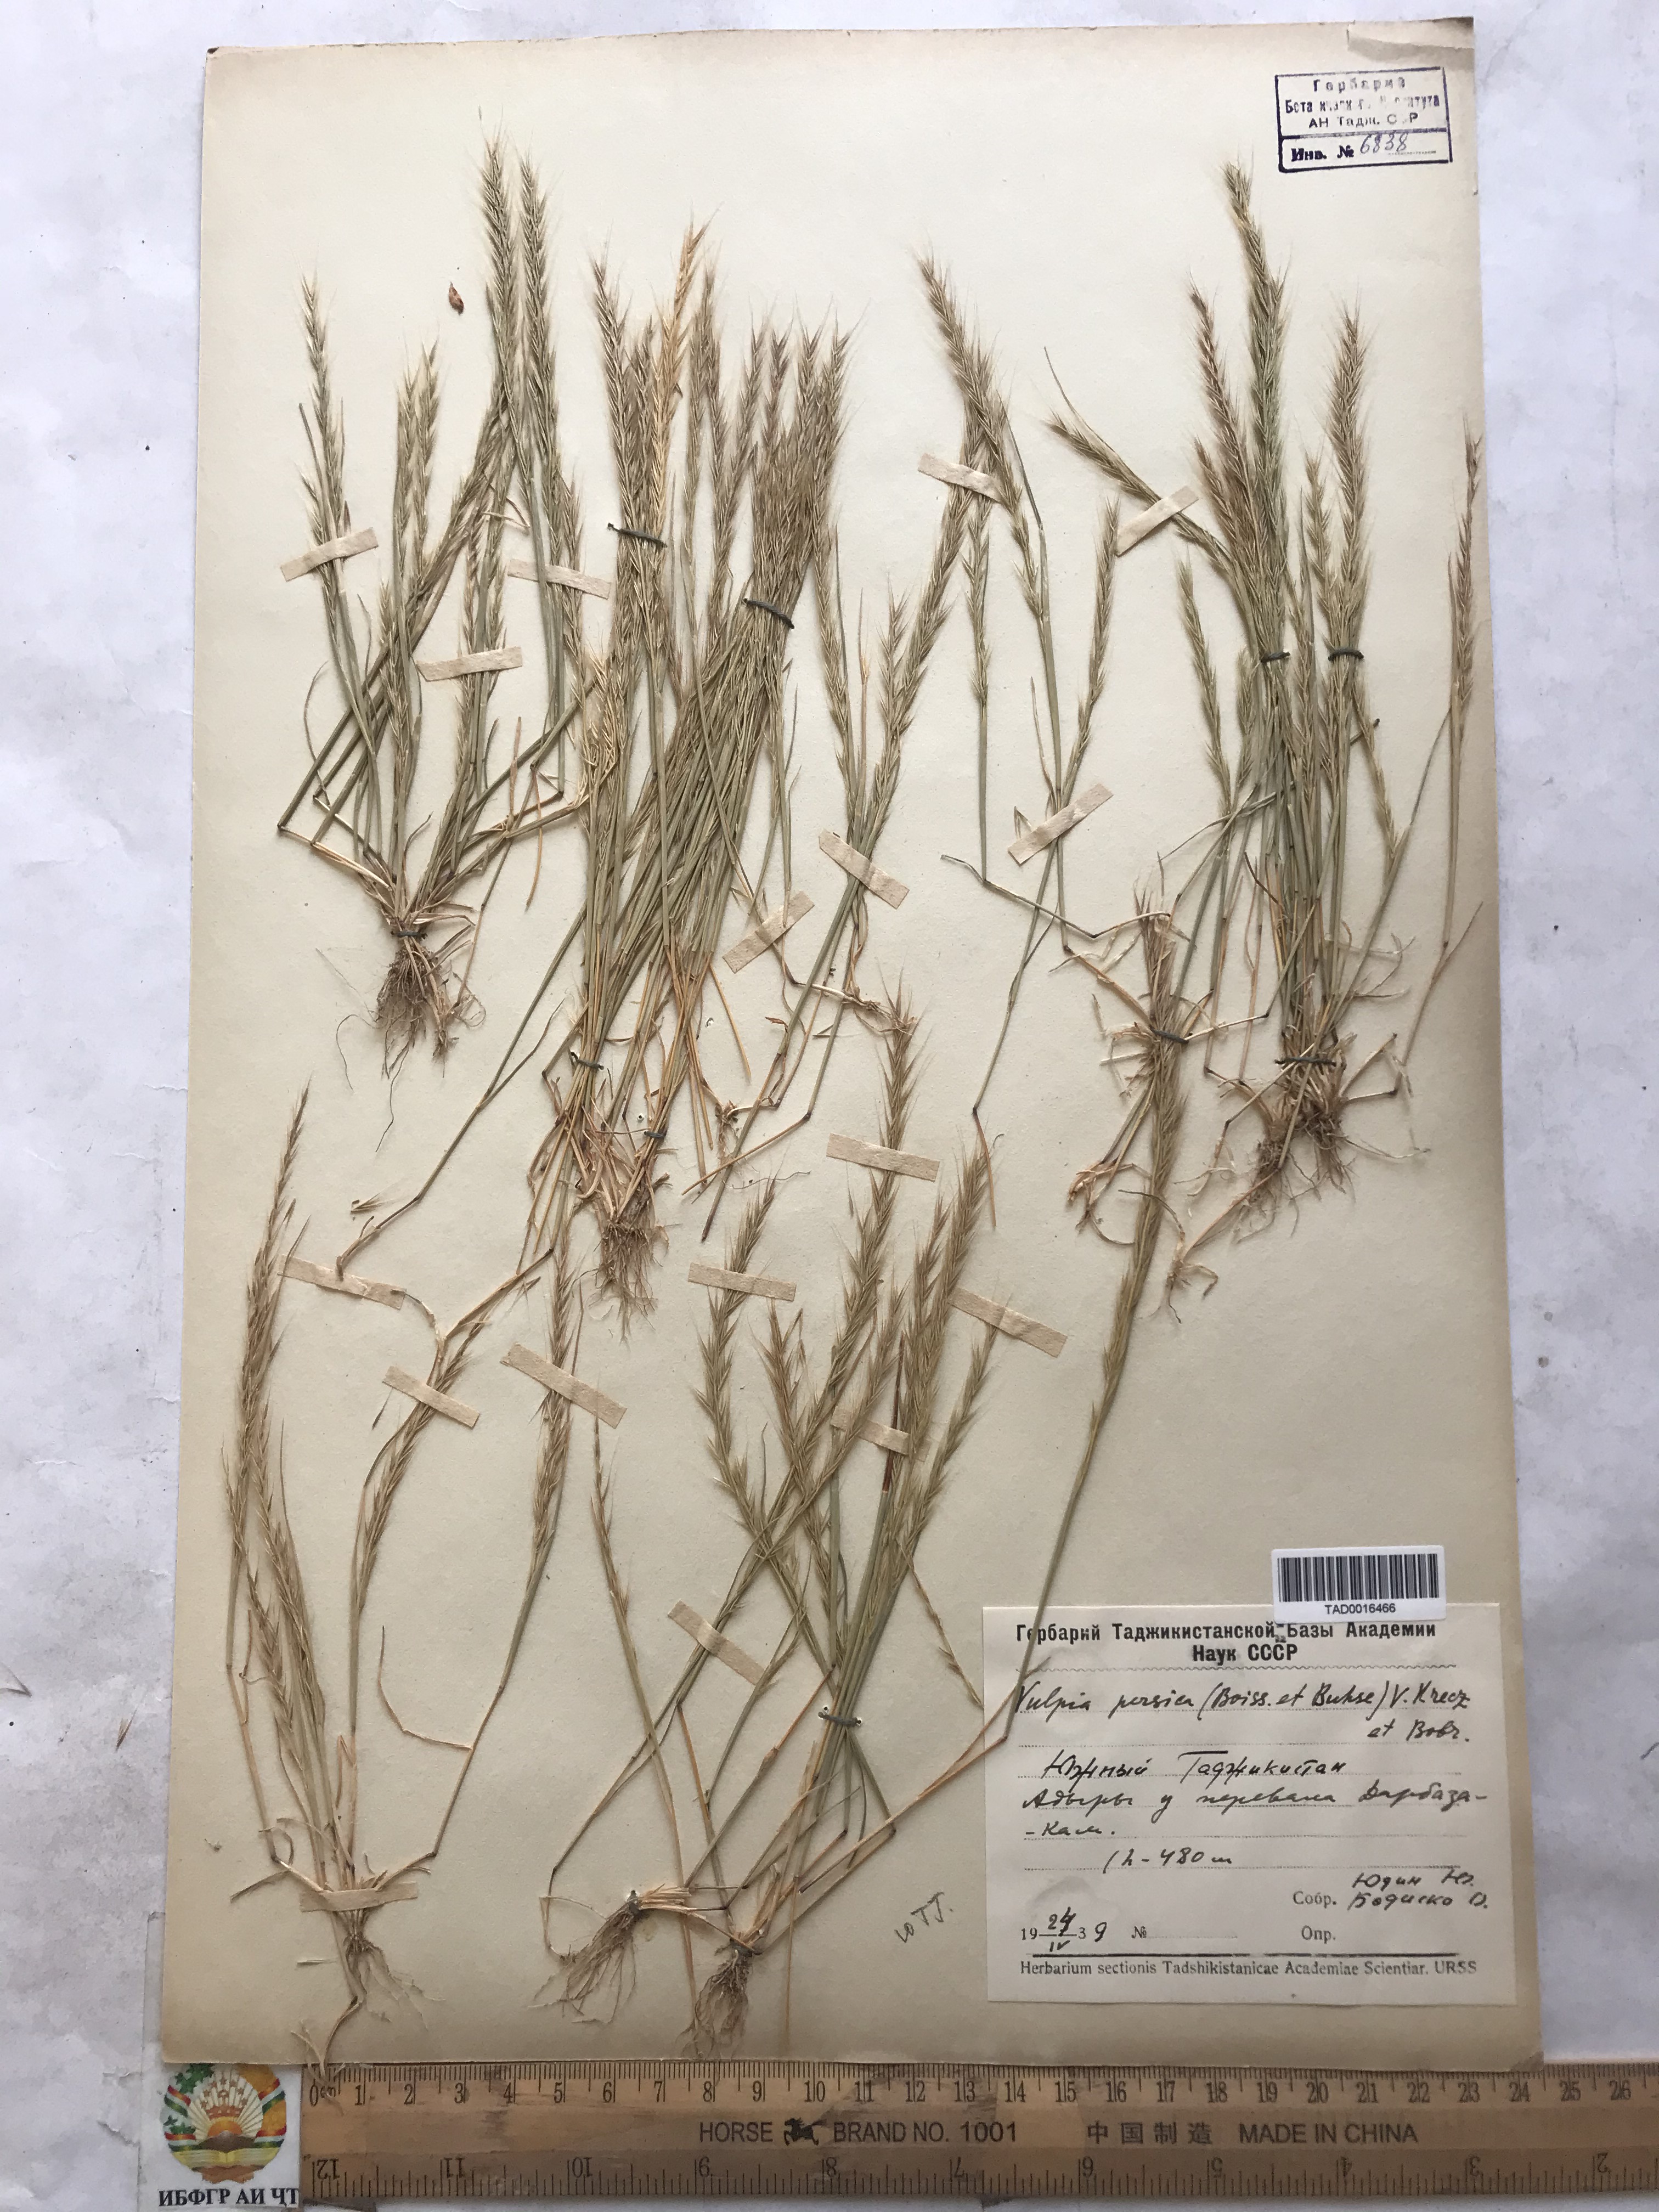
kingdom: Plantae
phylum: Tracheophyta
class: Liliopsida
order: Poales
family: Poaceae
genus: Festuca
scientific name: Festuca Vulpia persica
